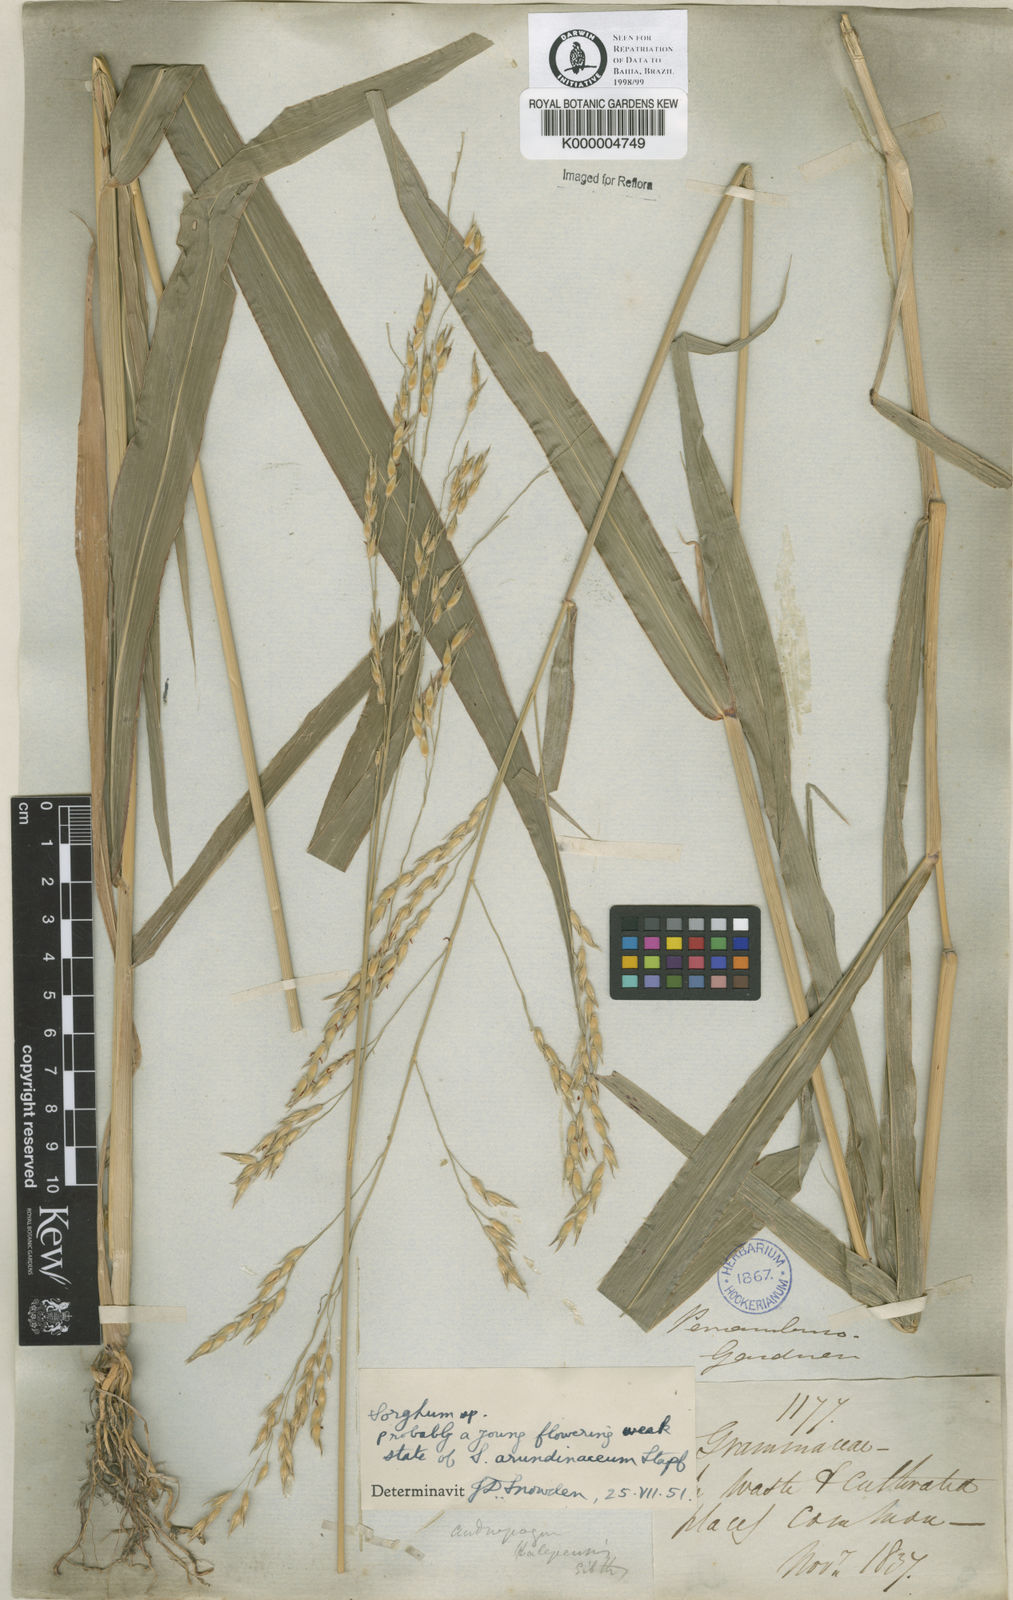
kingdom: Plantae
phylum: Tracheophyta
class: Liliopsida
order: Poales
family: Poaceae
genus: Sorghum
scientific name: Sorghum arundinaceum
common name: Sorghum
